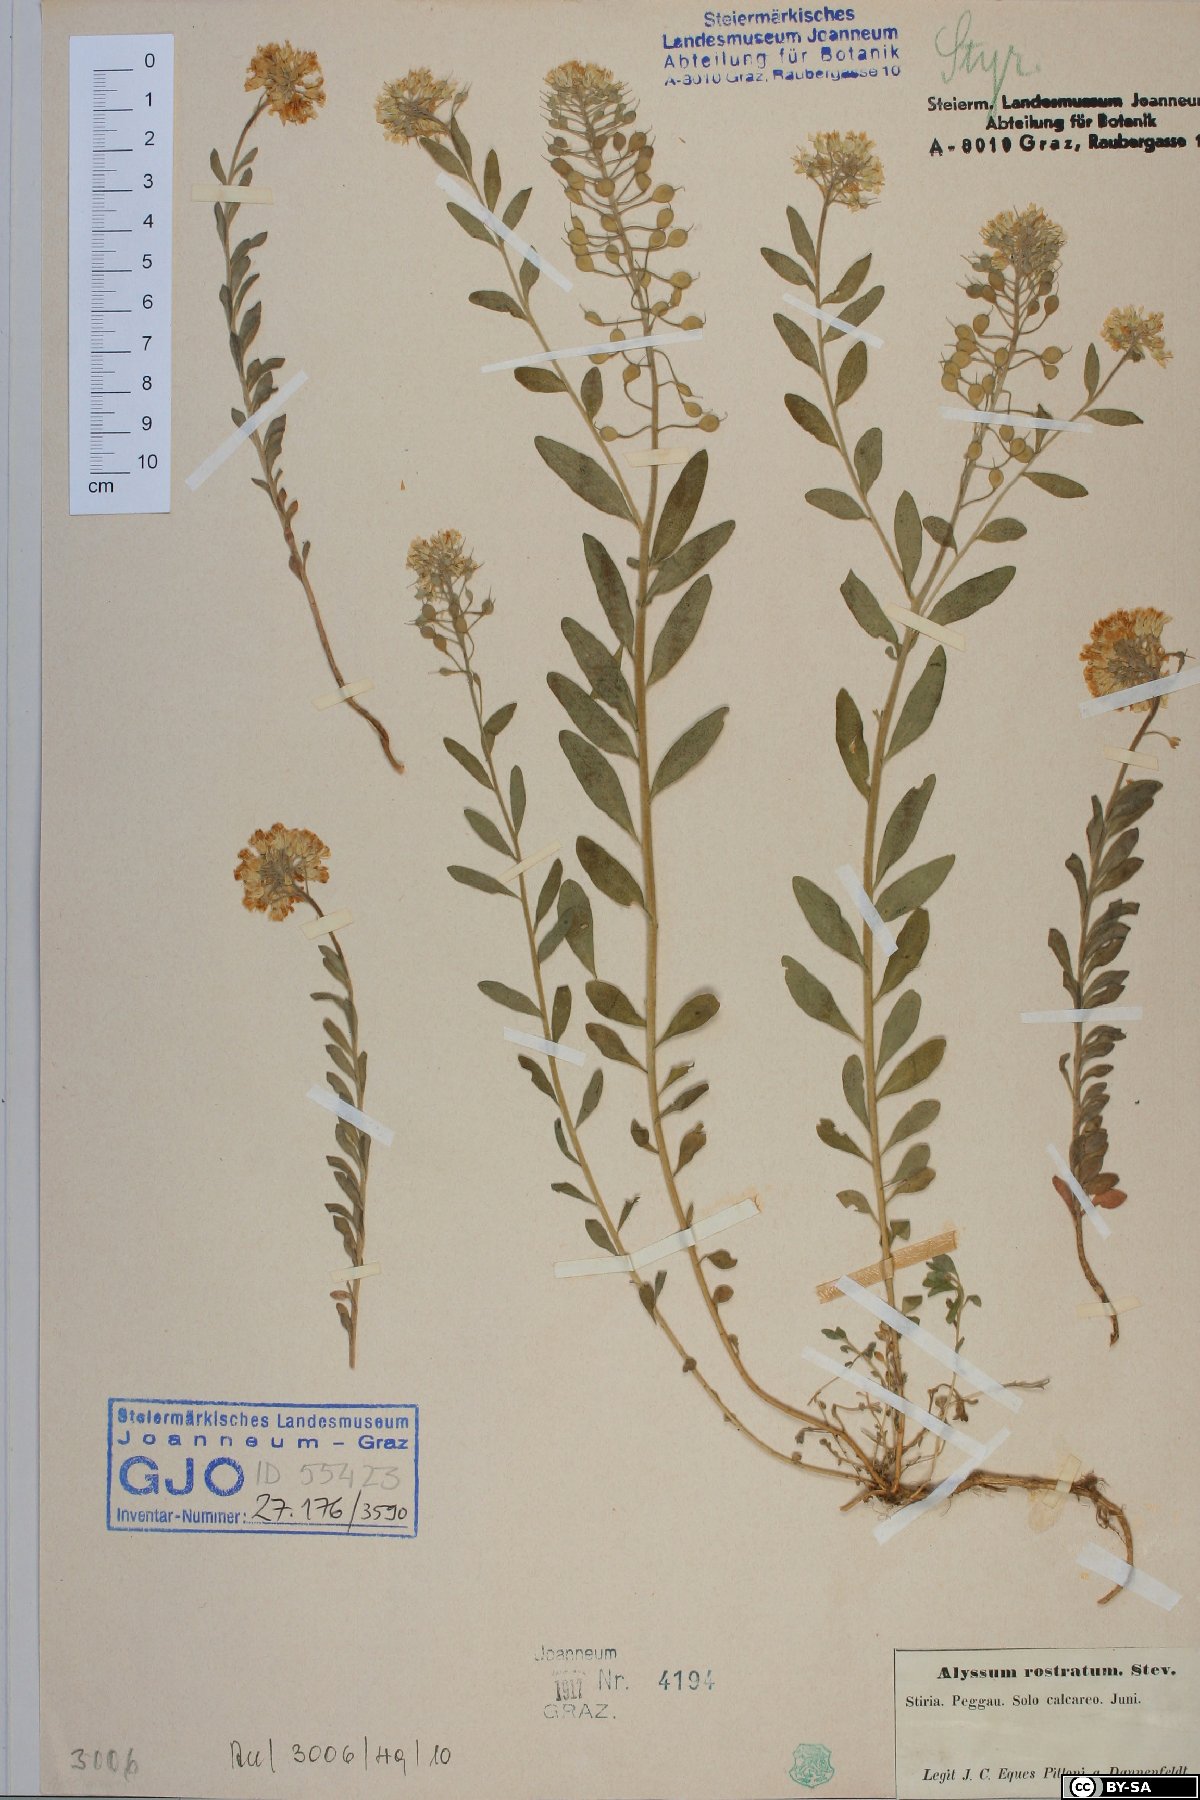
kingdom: Plantae
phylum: Tracheophyta
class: Magnoliopsida
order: Brassicales
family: Brassicaceae
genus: Alyssum
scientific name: Alyssum rostratum
